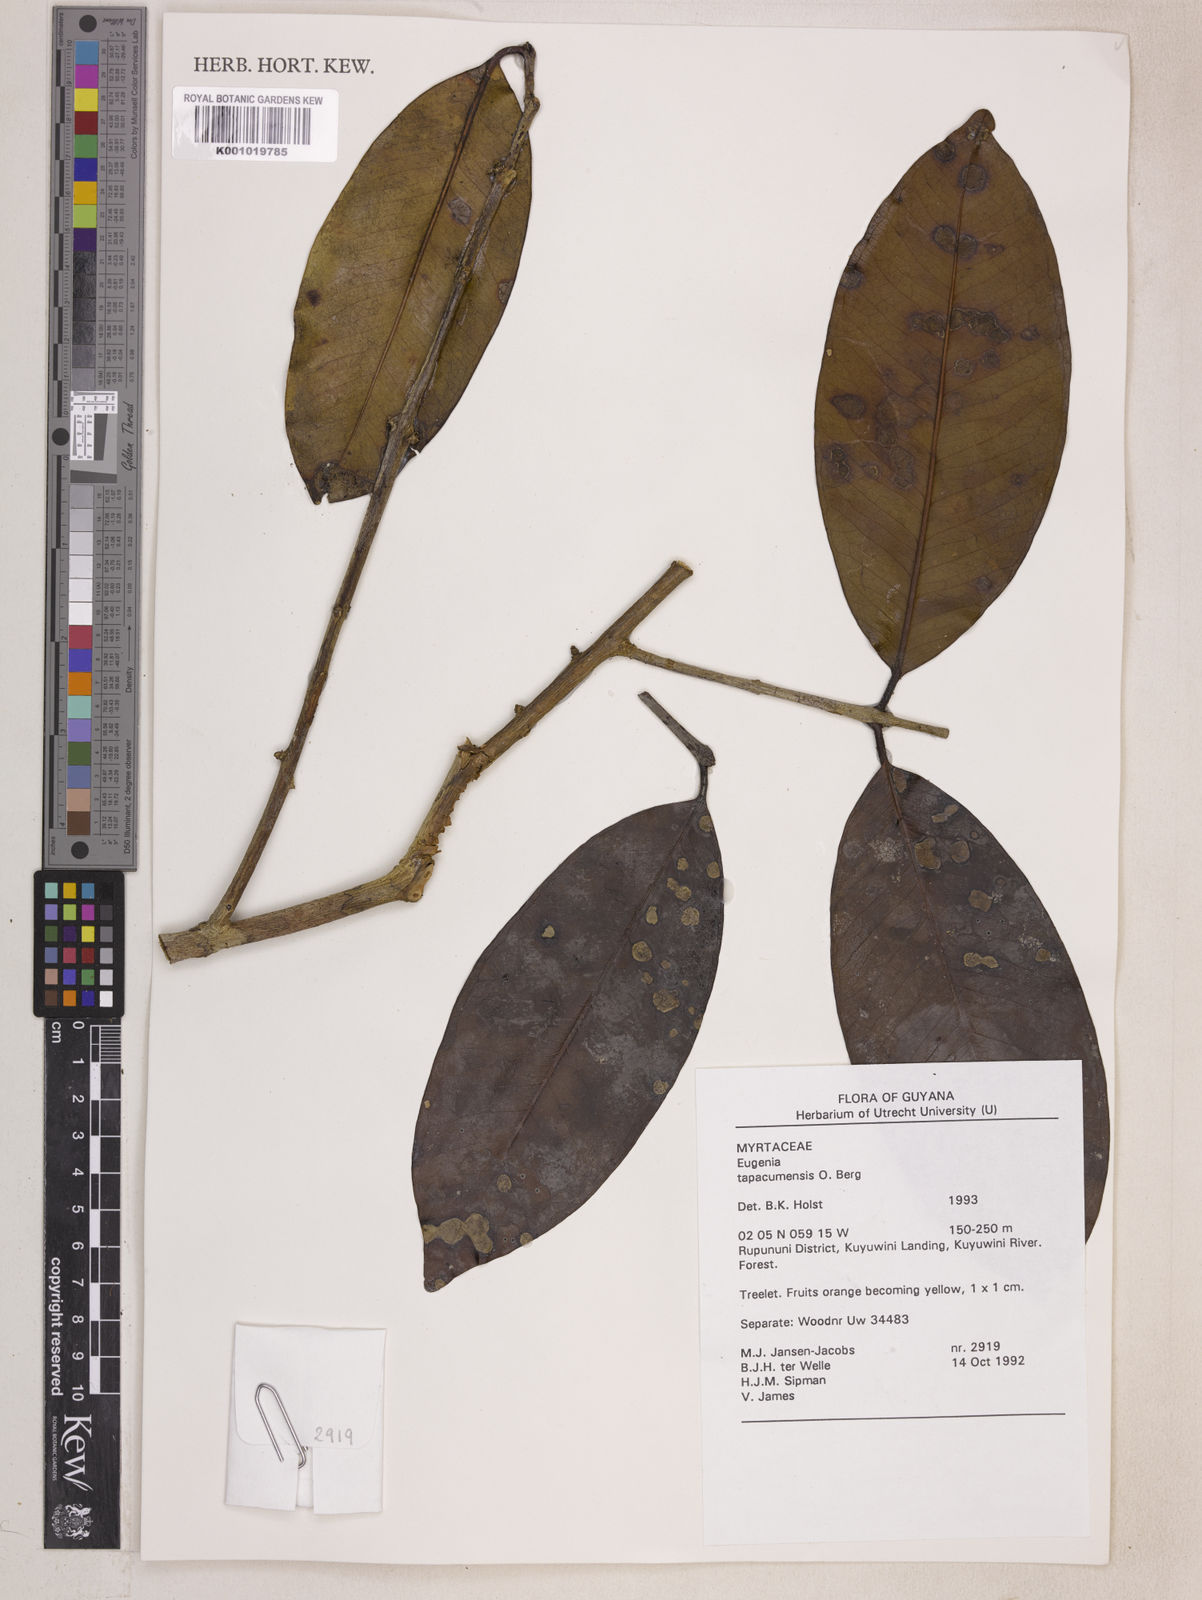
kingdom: Plantae
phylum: Tracheophyta
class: Magnoliopsida
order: Myrtales
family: Myrtaceae
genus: Eugenia
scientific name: Eugenia stictopetala
